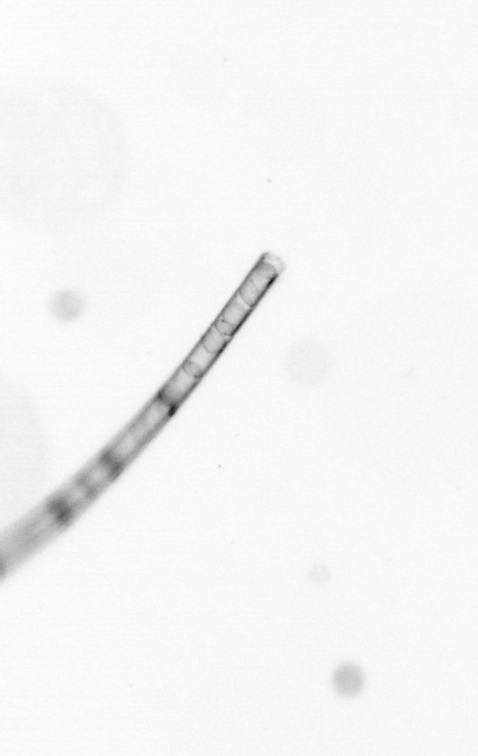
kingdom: Chromista
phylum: Ochrophyta
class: Bacillariophyceae
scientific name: Bacillariophyceae
